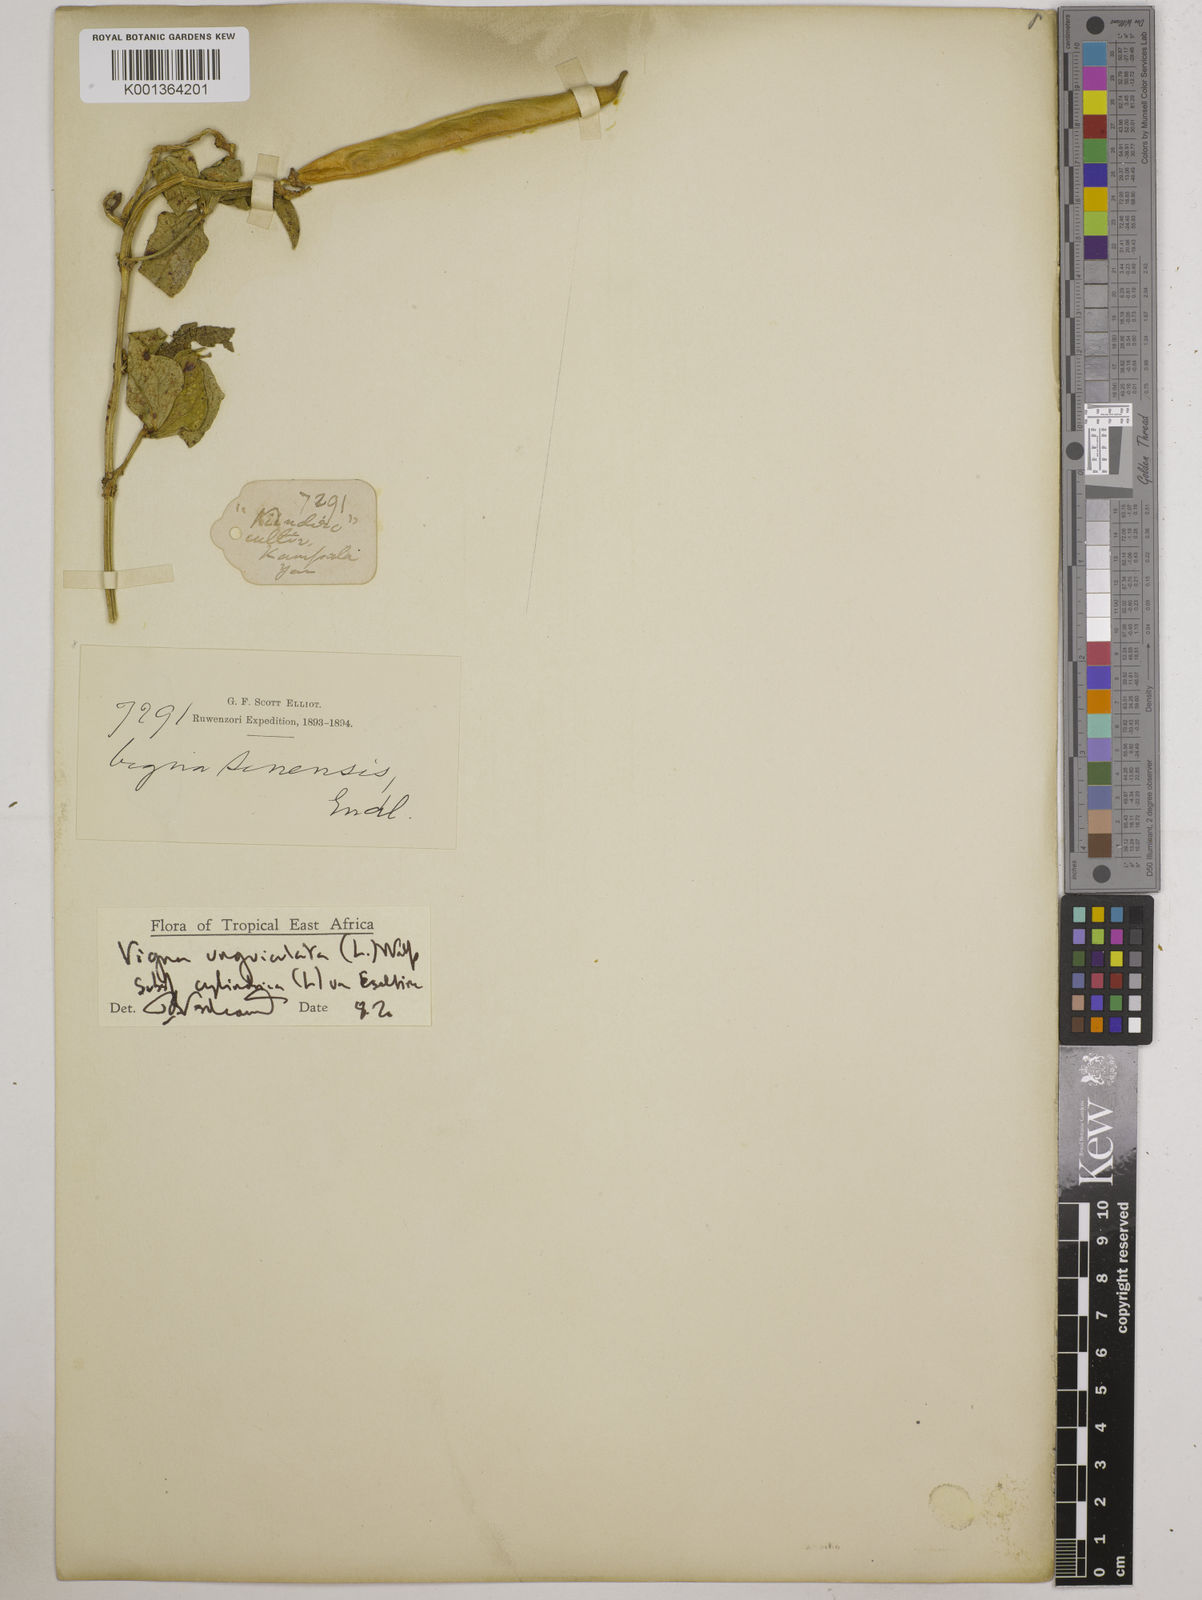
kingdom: Plantae
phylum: Tracheophyta
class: Magnoliopsida
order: Fabales
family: Fabaceae
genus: Vigna
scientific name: Vigna
